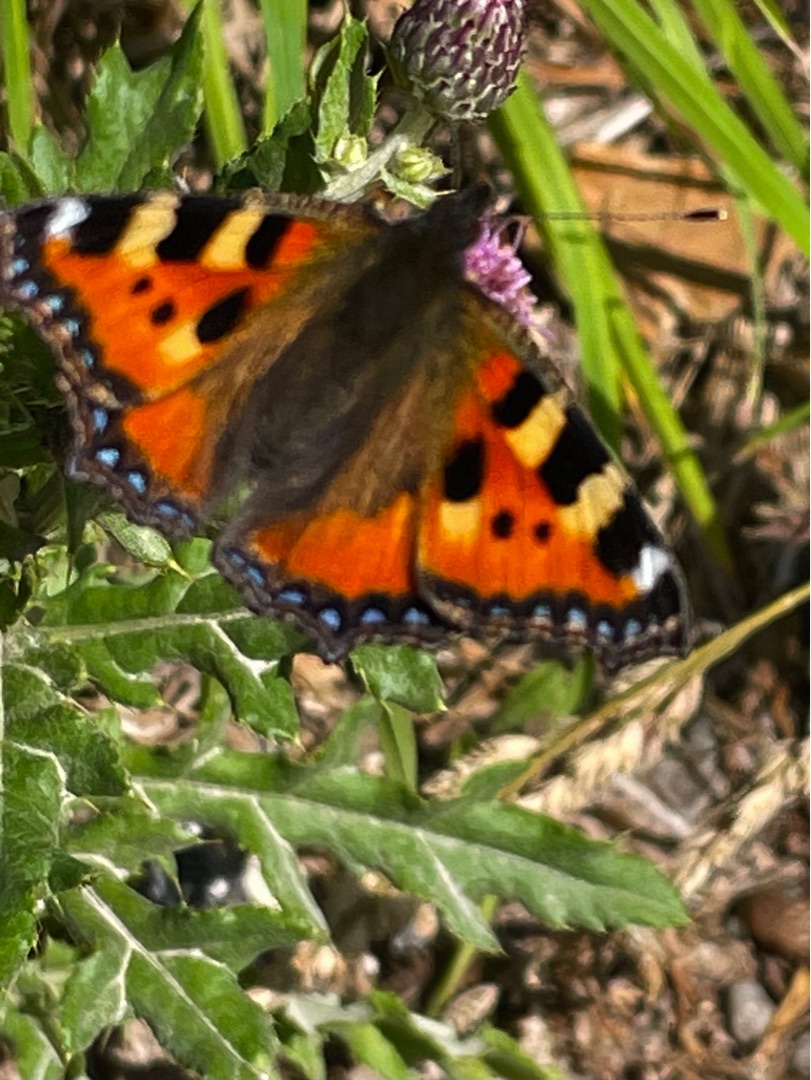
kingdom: Animalia
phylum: Arthropoda
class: Insecta
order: Lepidoptera
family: Nymphalidae
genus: Aglais
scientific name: Aglais urticae
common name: Nældens takvinge
